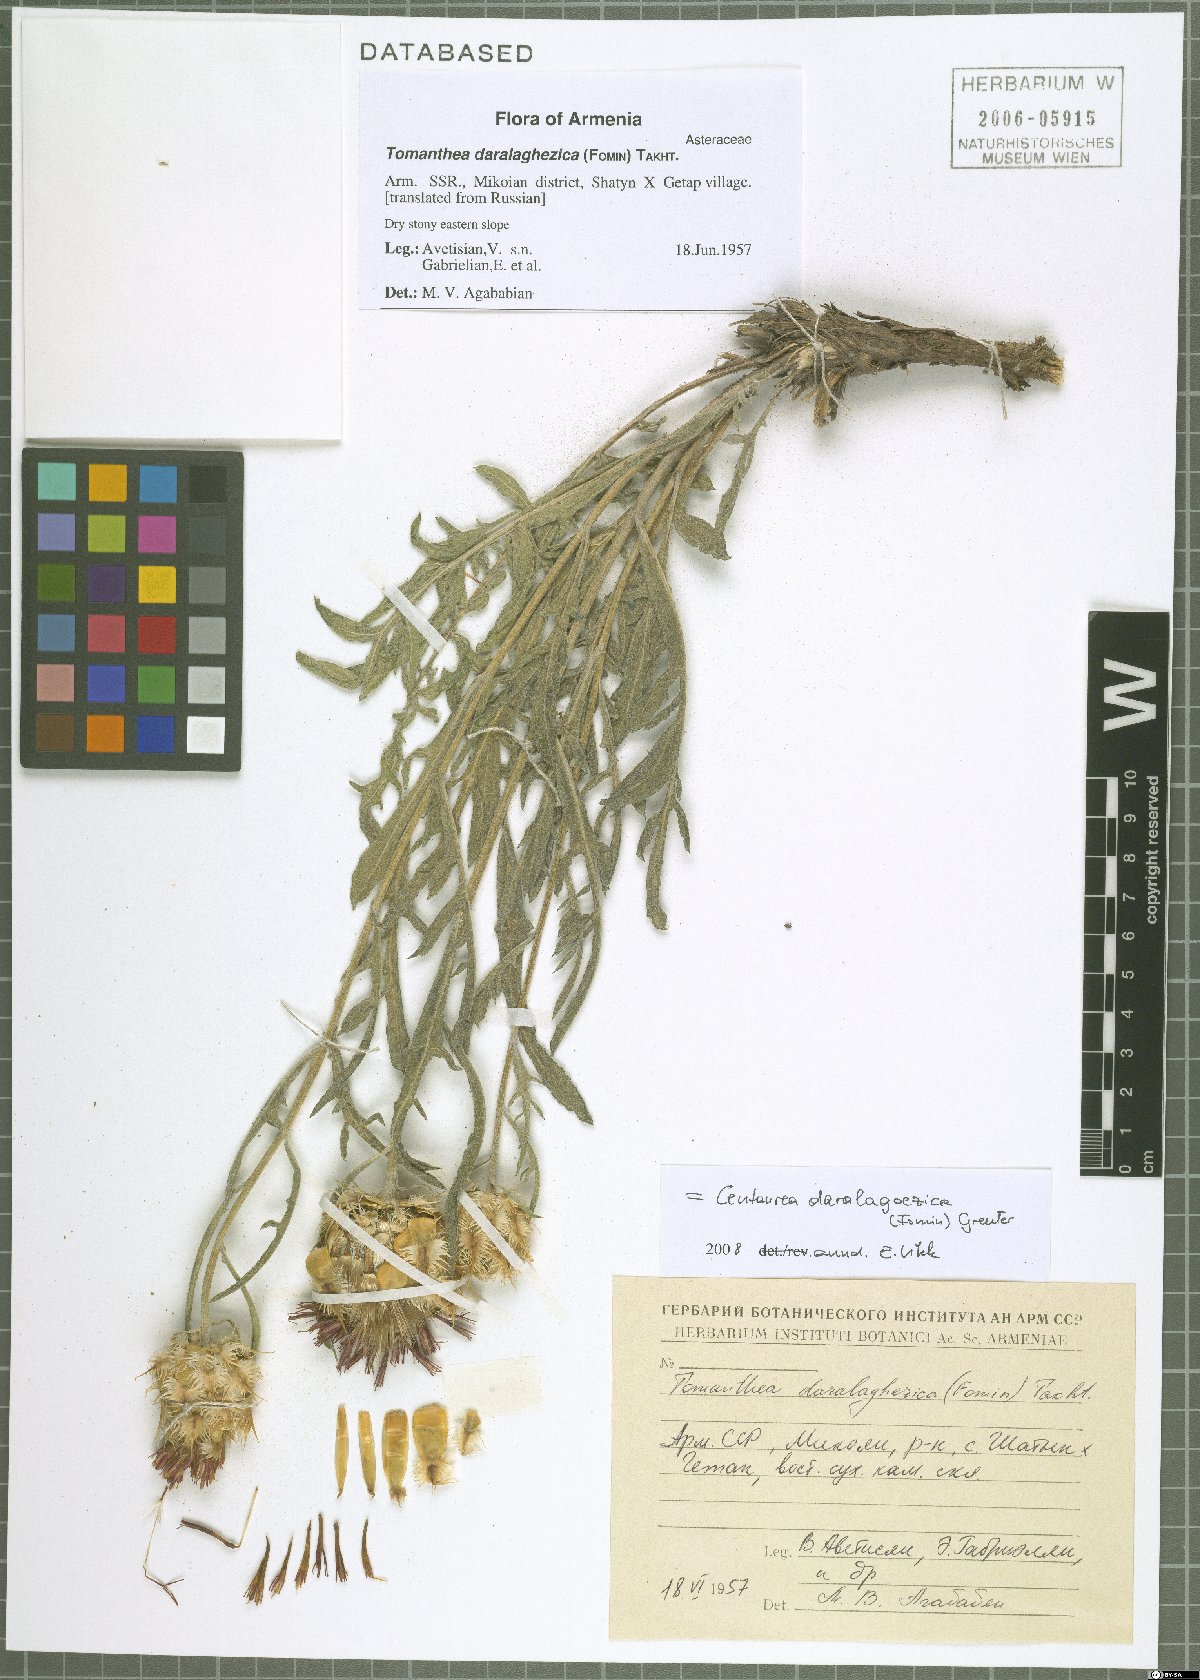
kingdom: Plantae
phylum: Tracheophyta
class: Magnoliopsida
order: Asterales
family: Asteraceae
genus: Centaurea
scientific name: Centaurea daralagoezica
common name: Daralagezian tomanthea
